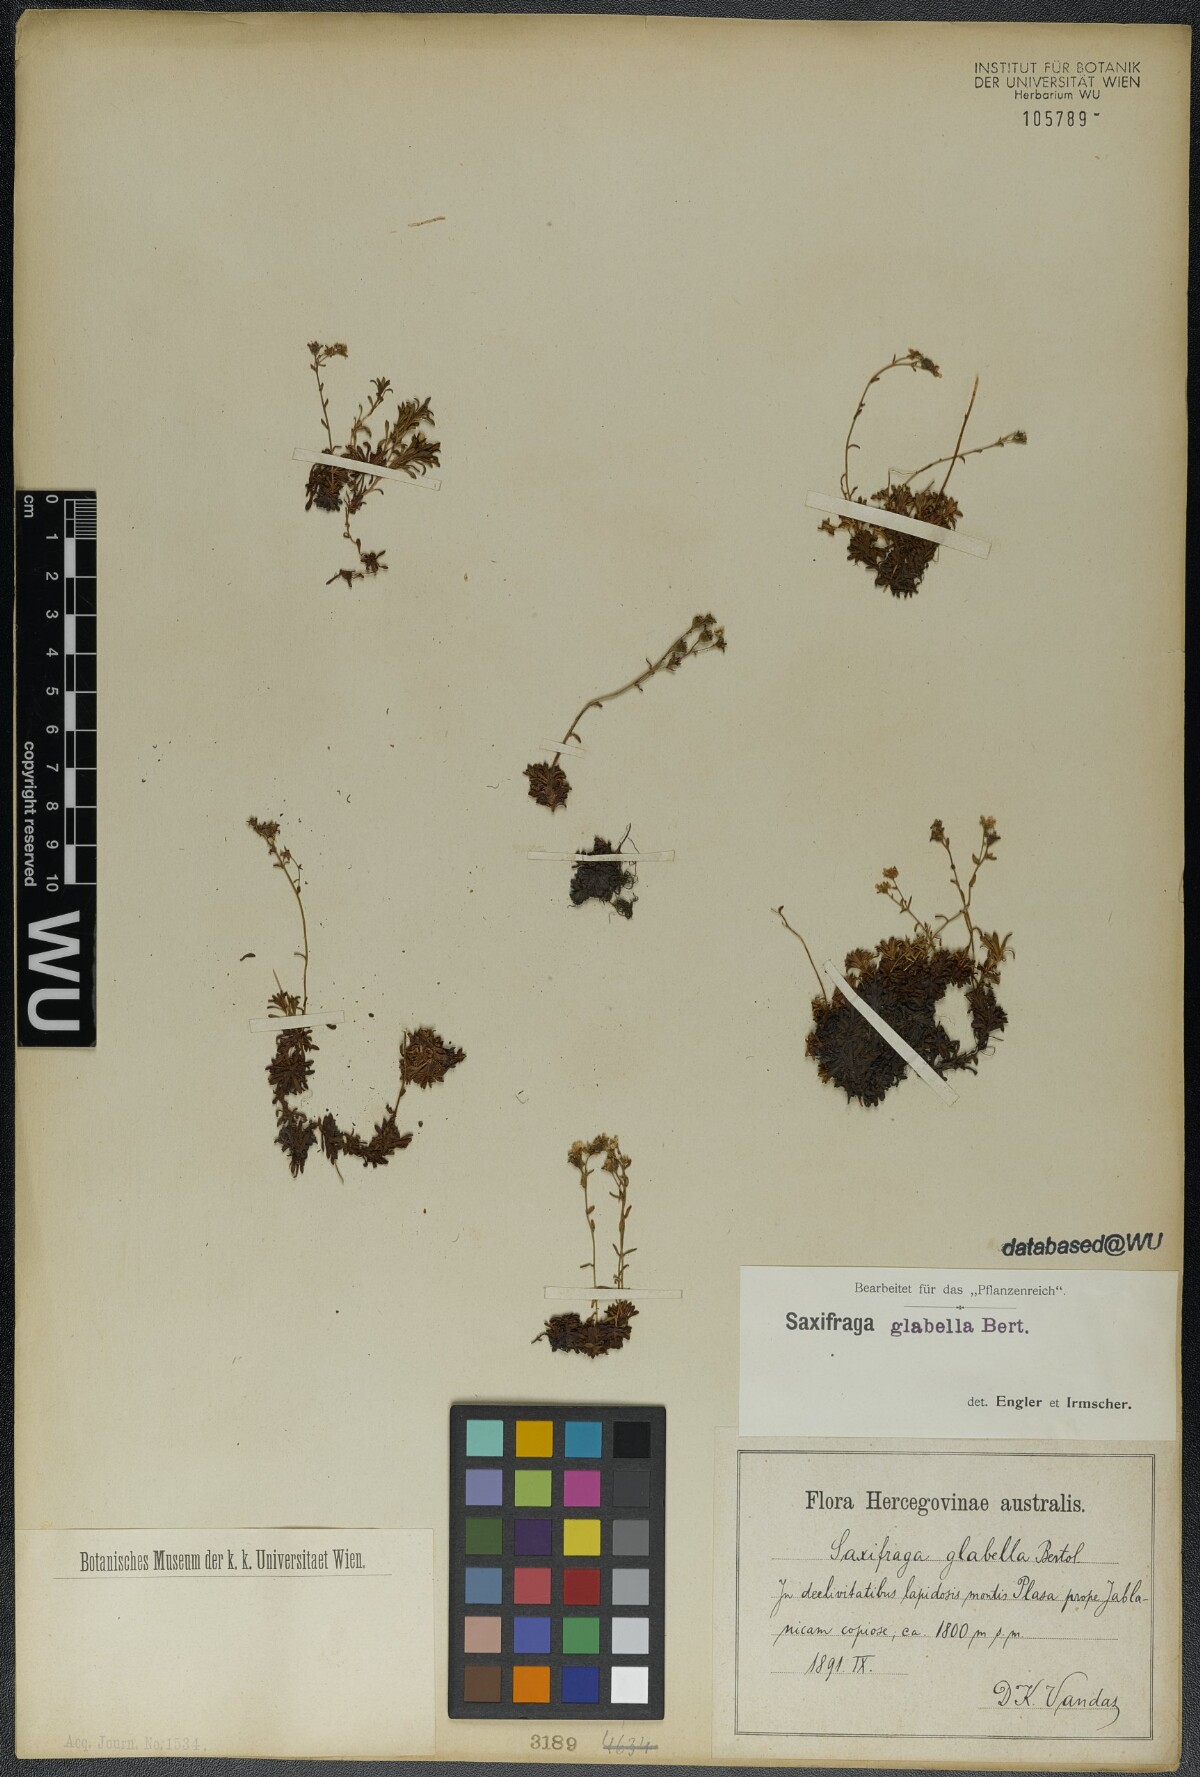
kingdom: Plantae
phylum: Tracheophyta
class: Magnoliopsida
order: Saxifragales
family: Saxifragaceae
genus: Saxifraga
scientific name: Saxifraga glabella
